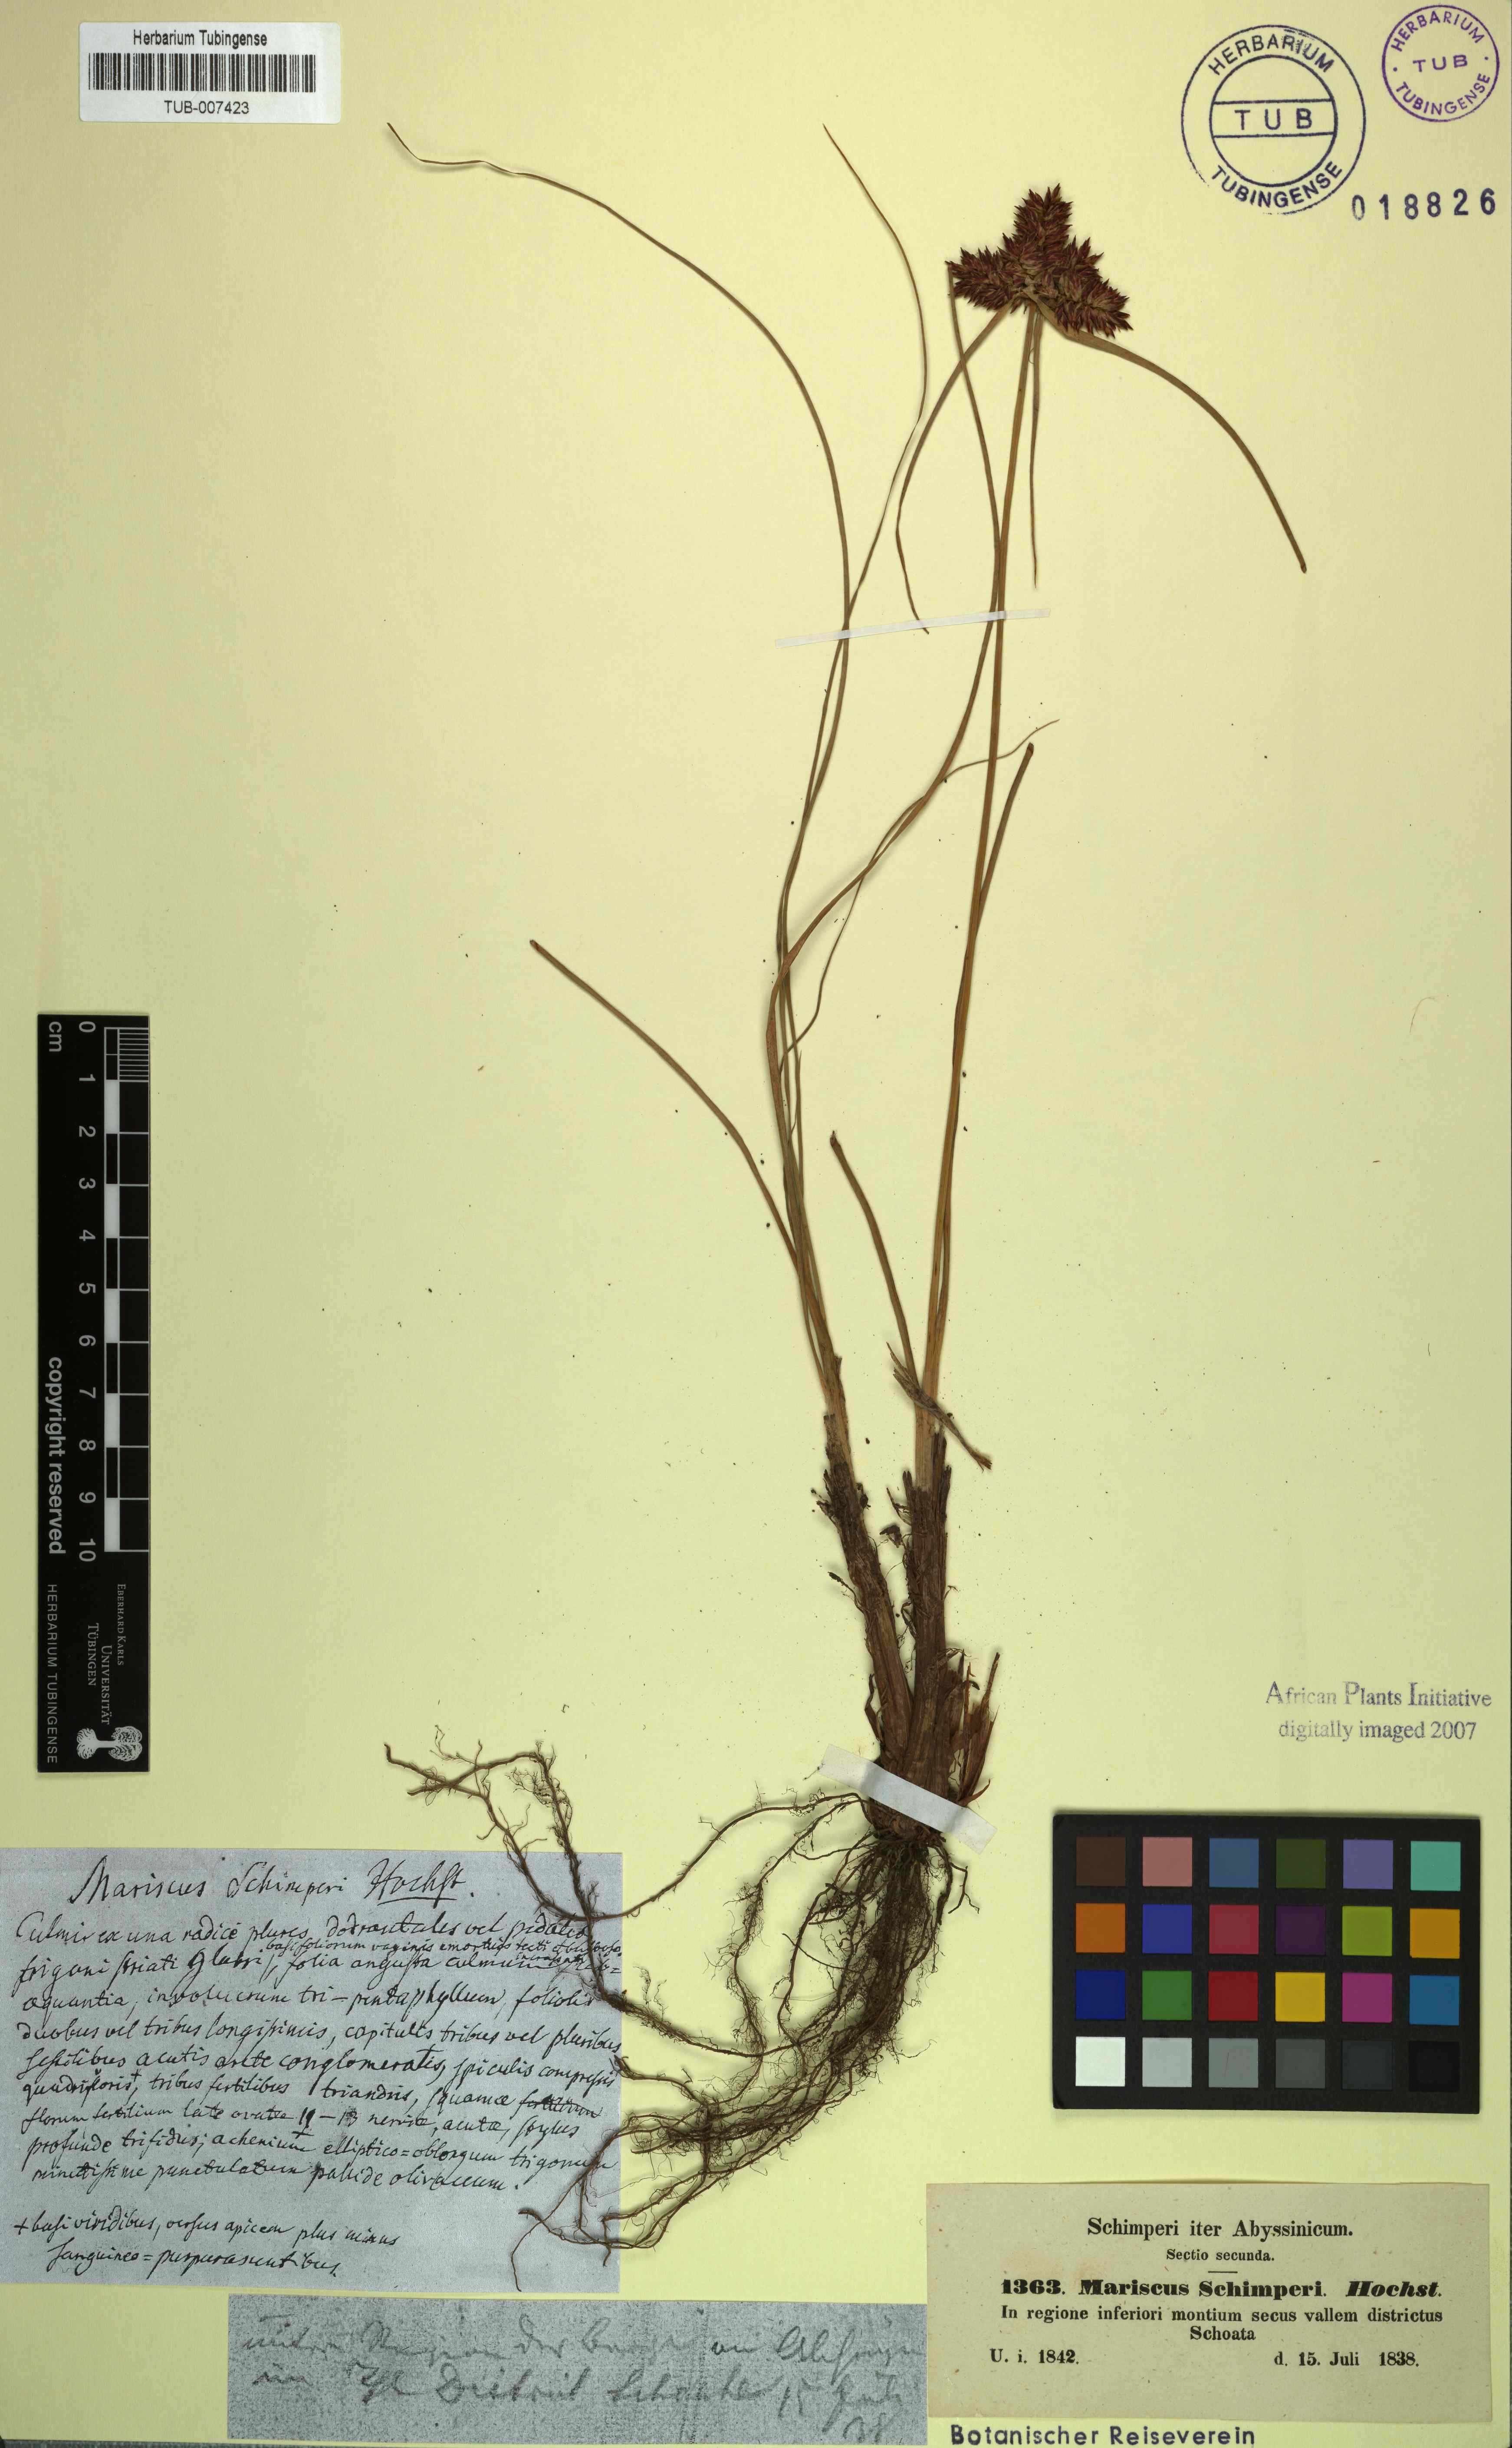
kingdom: Plantae
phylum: Tracheophyta
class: Liliopsida
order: Poales
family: Cyperaceae
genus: Cladium
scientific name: Cladium Mariscus schimperi
